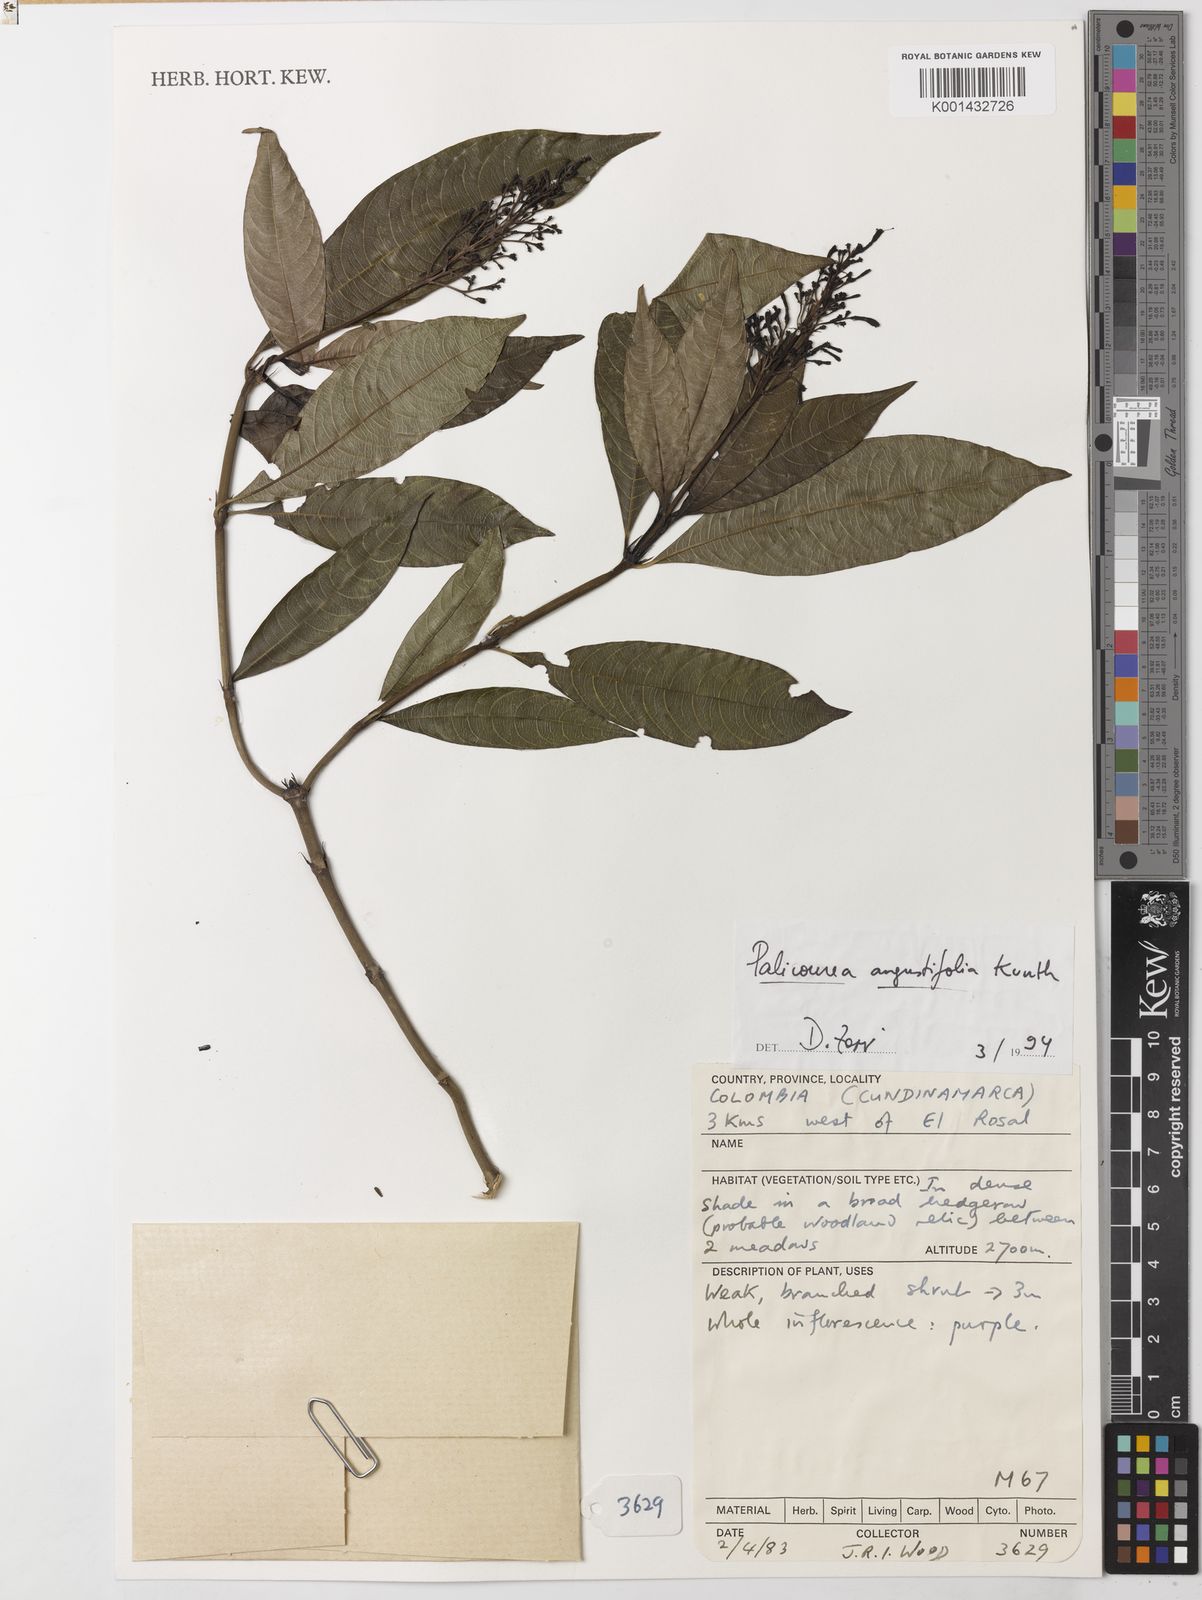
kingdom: Plantae
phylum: Tracheophyta
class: Magnoliopsida
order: Gentianales
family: Rubiaceae
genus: Palicourea
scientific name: Palicourea angustifolia
